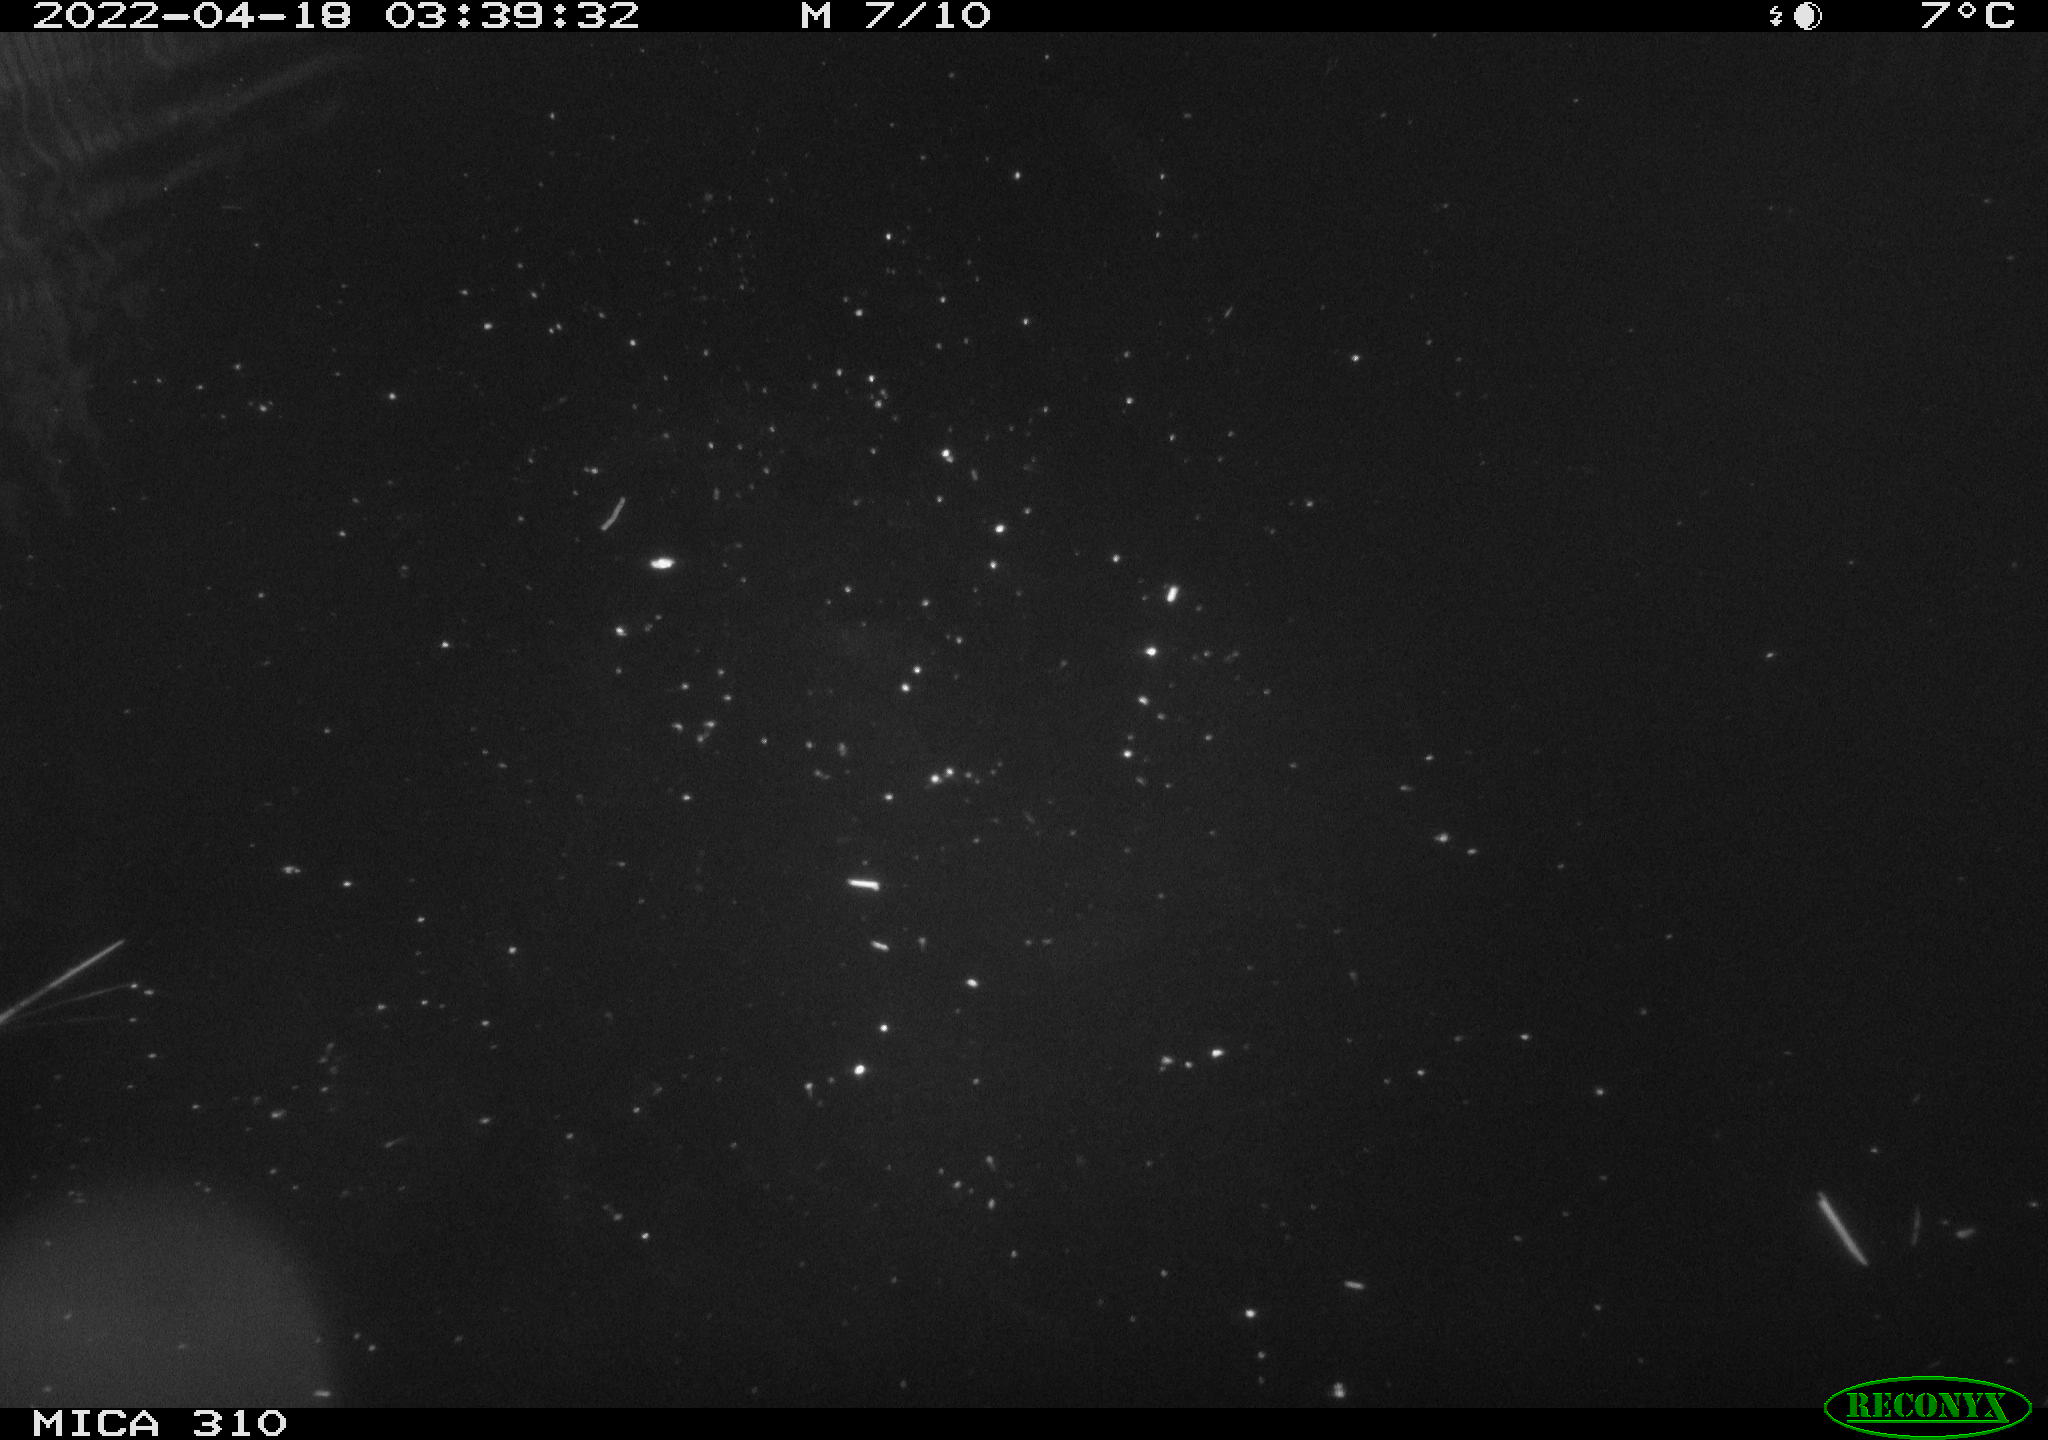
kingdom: Animalia
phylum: Chordata
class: Aves
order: Pelecaniformes
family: Ardeidae
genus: Ardea
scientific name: Ardea
